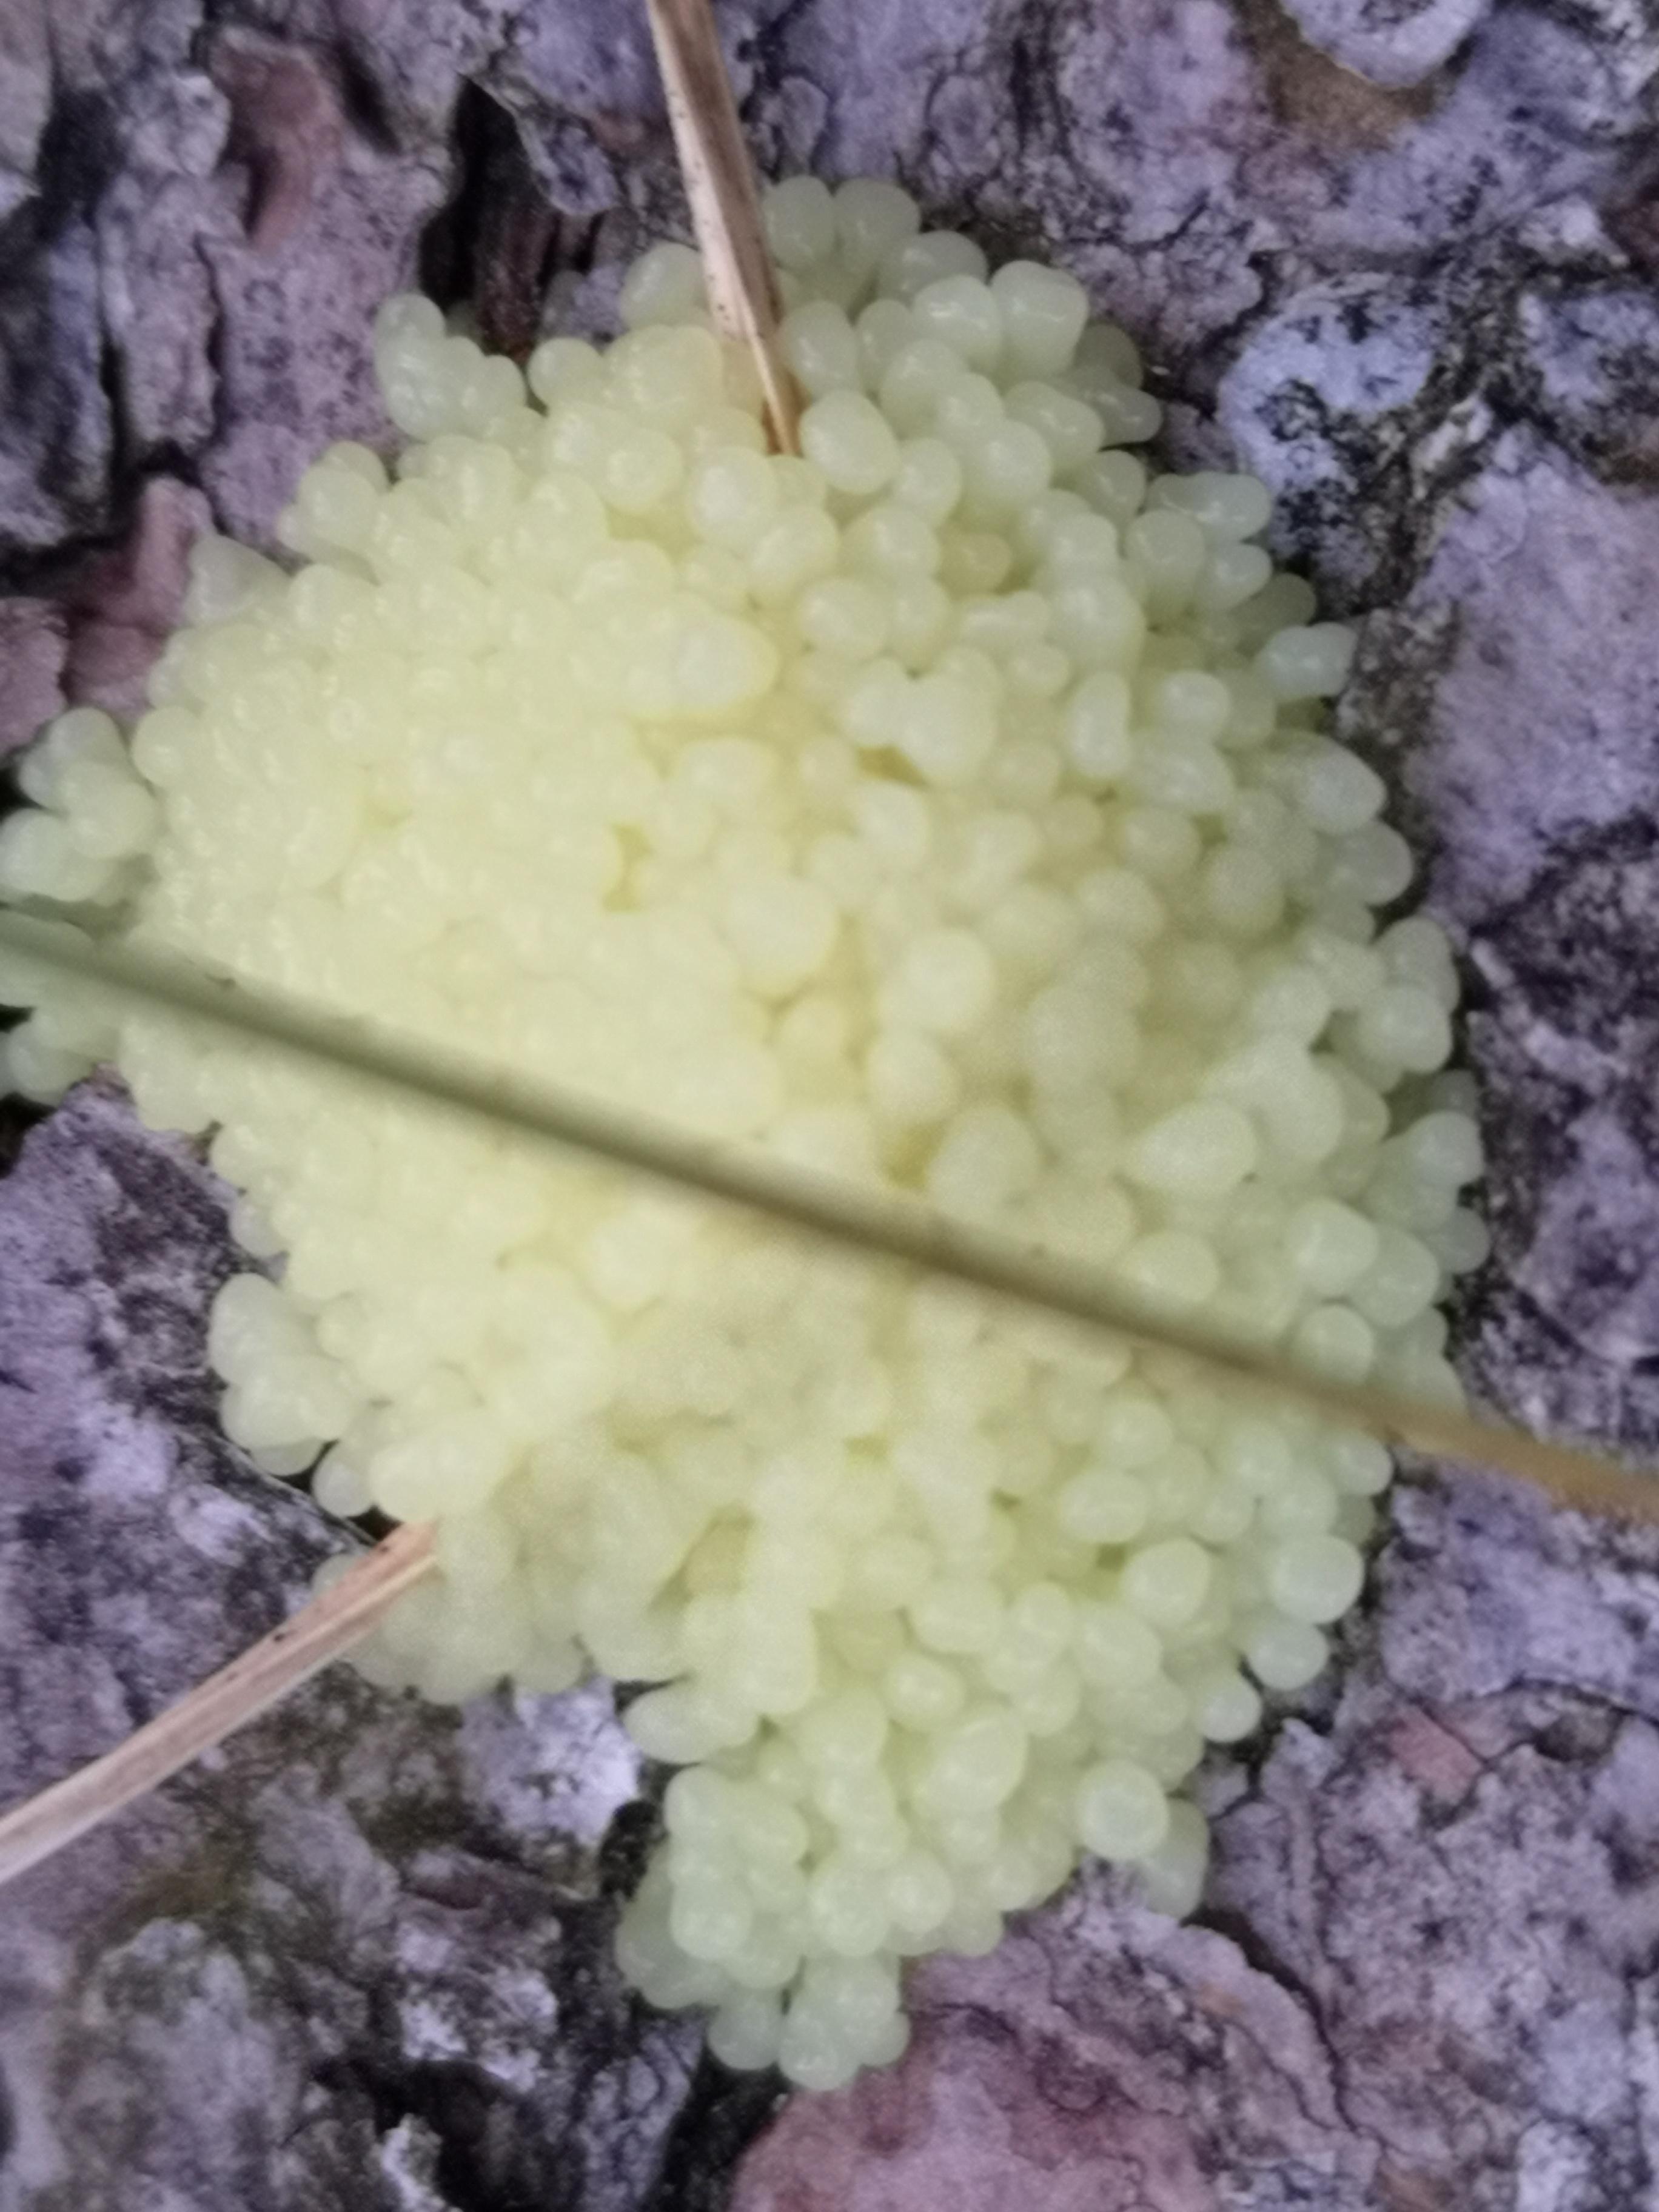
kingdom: Protozoa
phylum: Mycetozoa
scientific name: Mycetozoa
